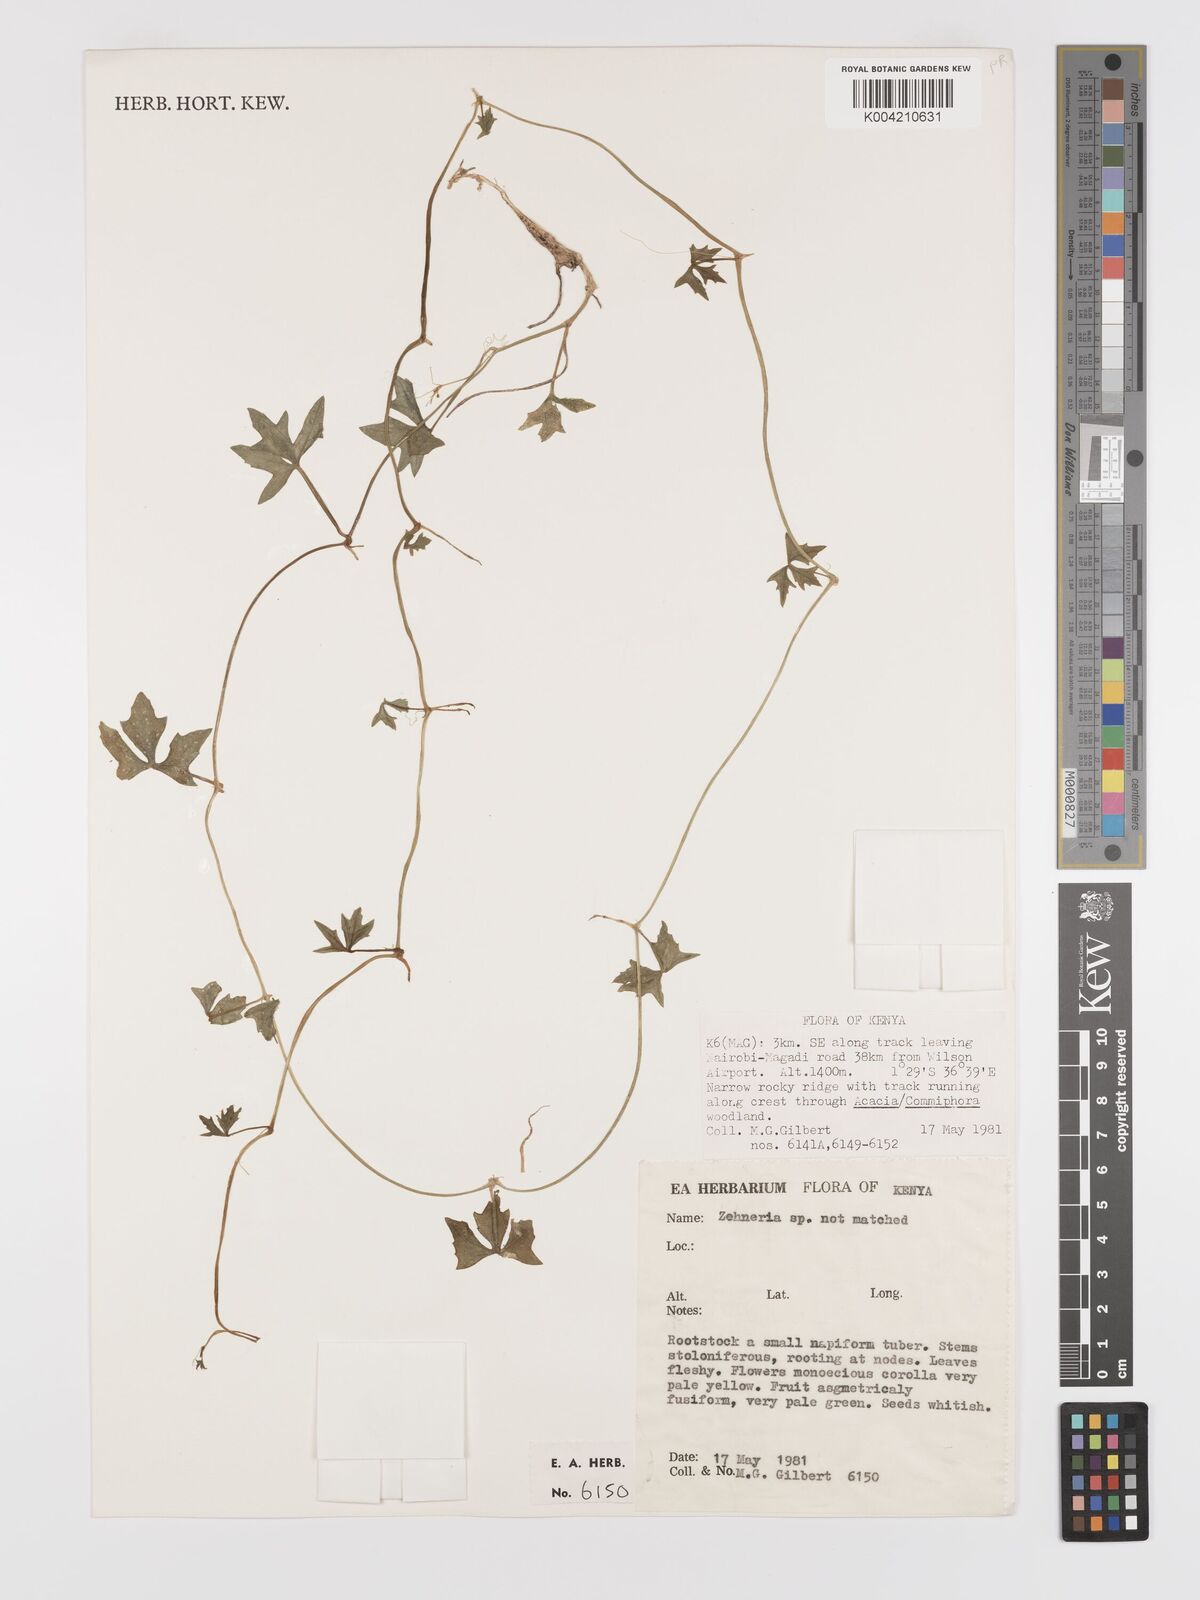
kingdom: Plantae
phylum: Tracheophyta
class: Magnoliopsida
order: Cucurbitales
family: Cucurbitaceae
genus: Zehneria
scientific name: Zehneria
